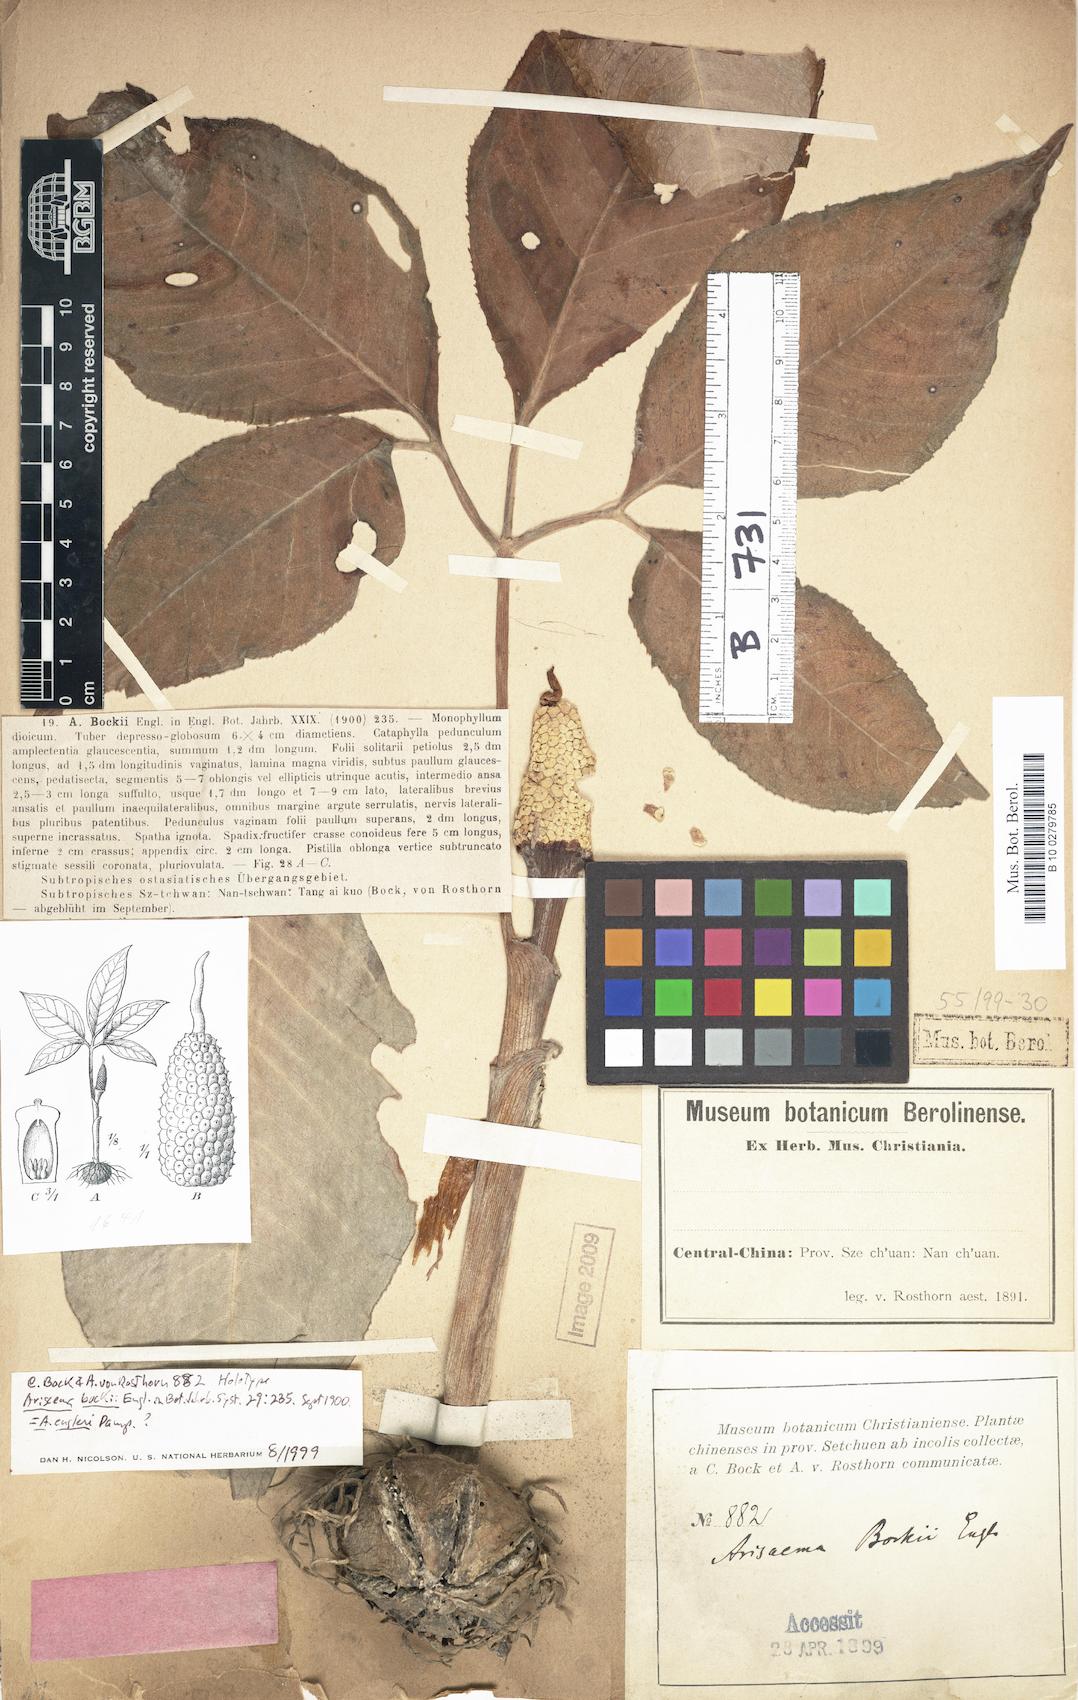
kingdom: Plantae
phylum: Tracheophyta
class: Liliopsida
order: Alismatales
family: Araceae
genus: Arisaema
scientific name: Arisaema bockii
